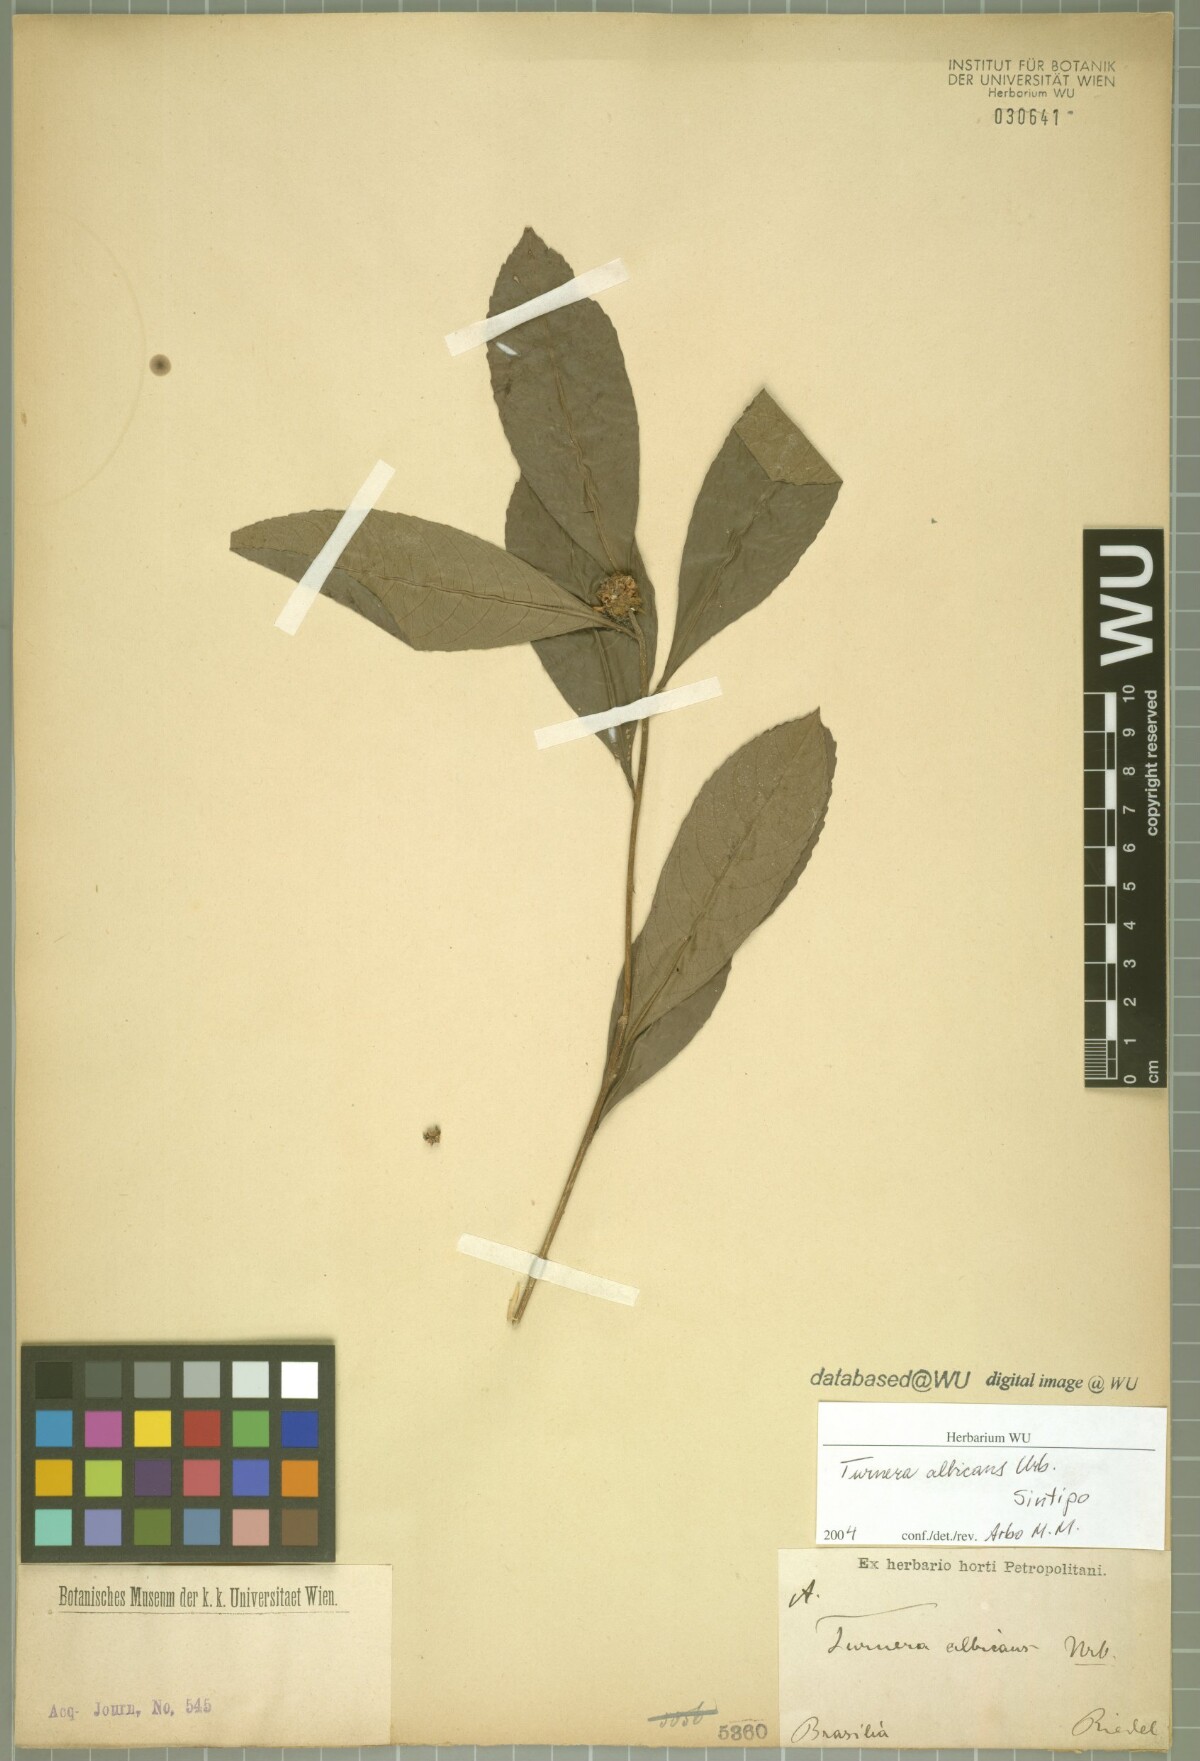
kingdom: Plantae
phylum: Tracheophyta
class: Magnoliopsida
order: Malpighiales
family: Turneraceae
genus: Oxossia
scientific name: Oxossia albicans
